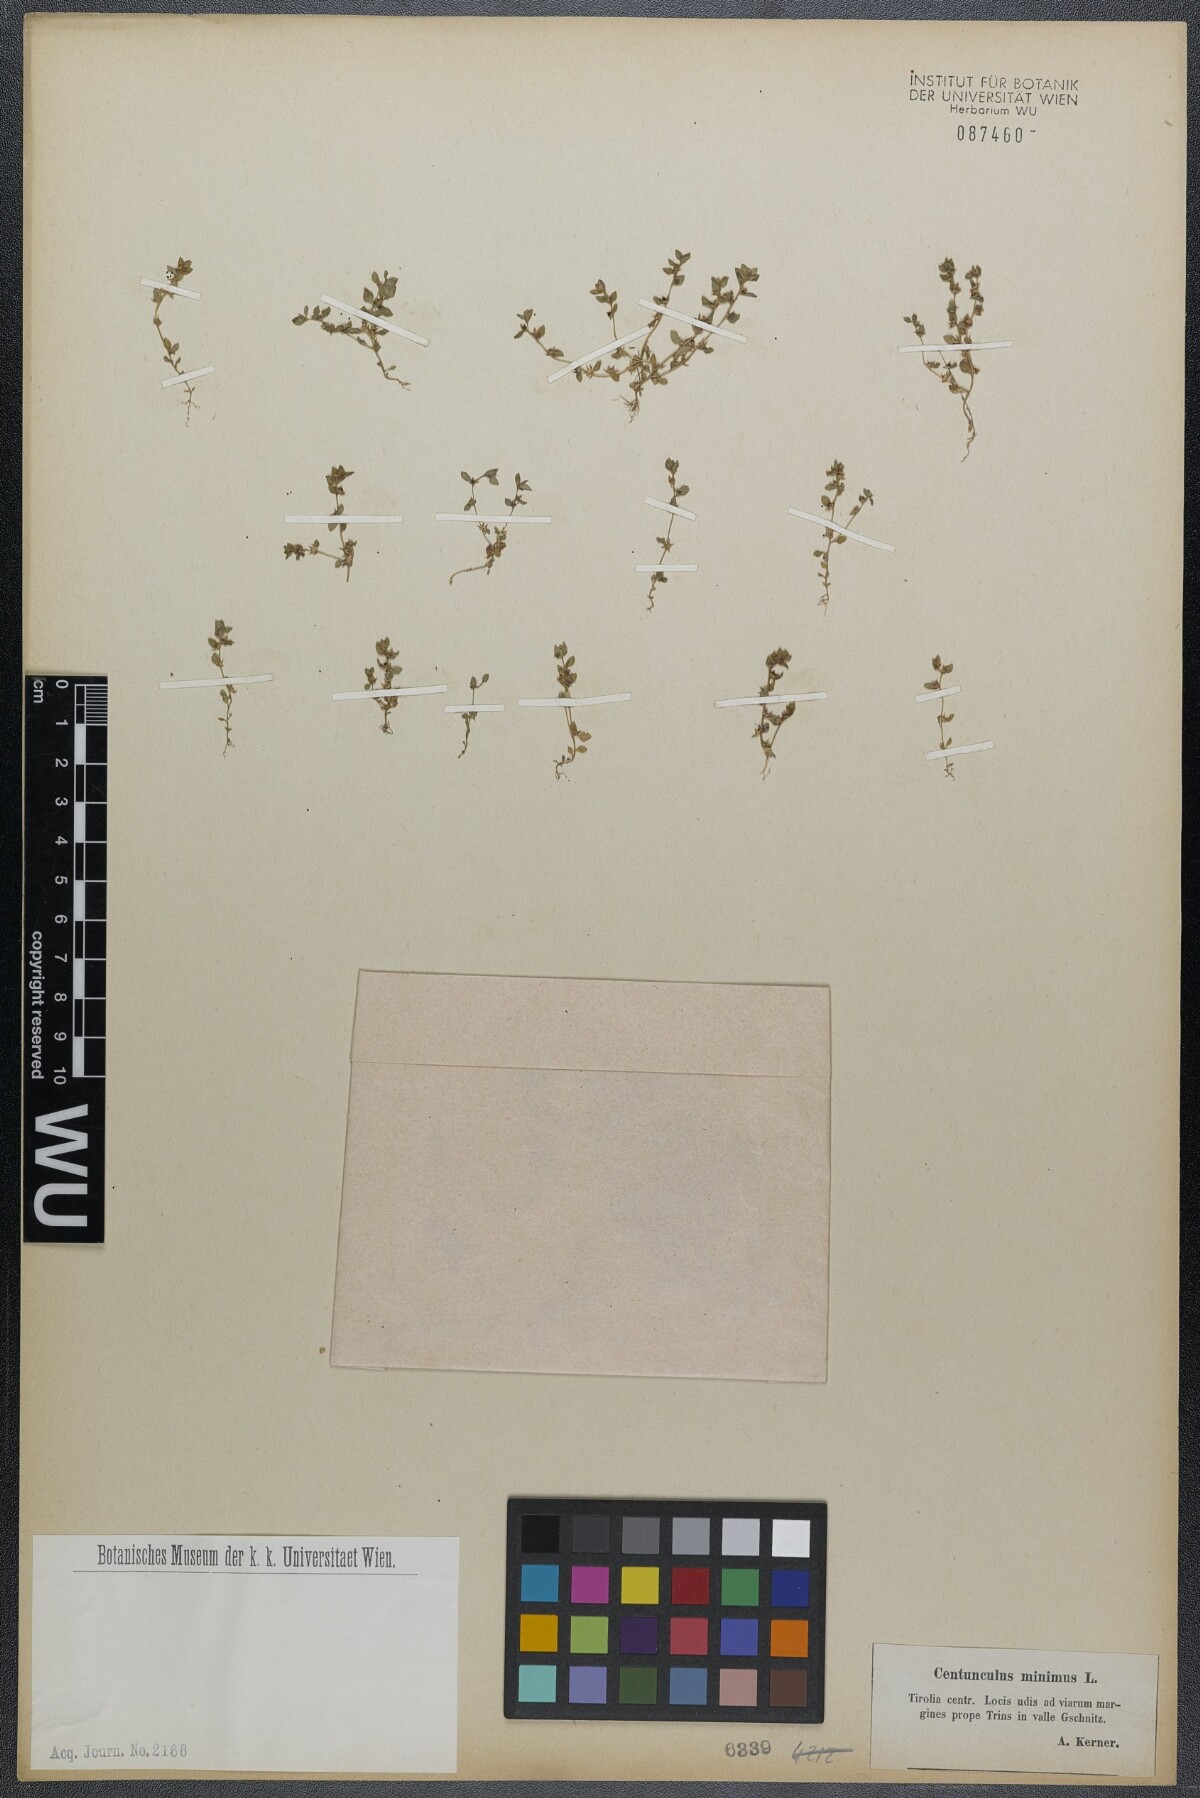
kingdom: Plantae
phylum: Tracheophyta
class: Magnoliopsida
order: Ericales
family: Primulaceae
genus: Lysimachia
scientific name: Lysimachia minima
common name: Chaffweed
